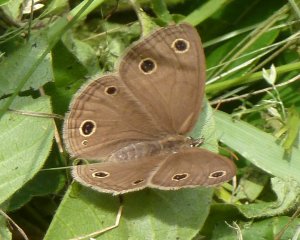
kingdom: Animalia
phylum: Arthropoda
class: Insecta
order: Lepidoptera
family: Nymphalidae
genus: Euptychia
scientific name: Euptychia cymela
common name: Little Wood Satyr
